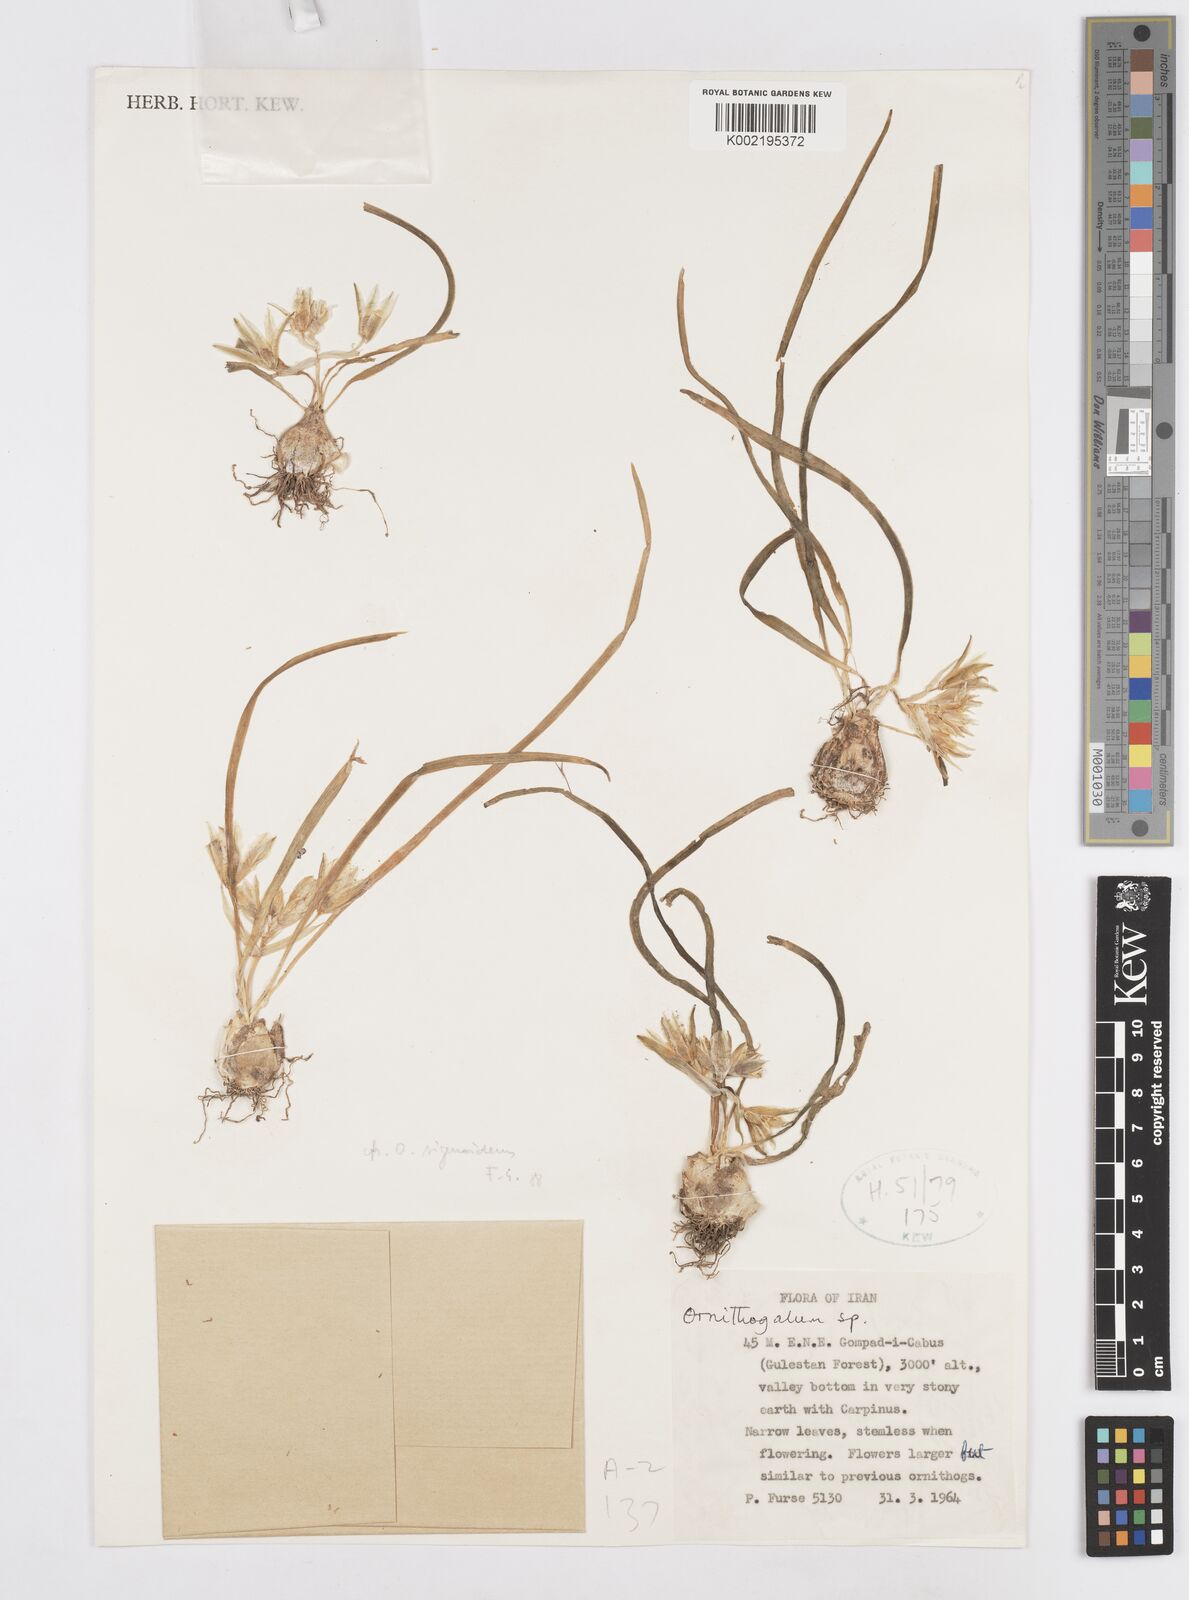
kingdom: Plantae
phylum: Tracheophyta
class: Liliopsida
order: Asparagales
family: Asparagaceae
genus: Ornithogalum
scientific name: Ornithogalum sigmoideum
